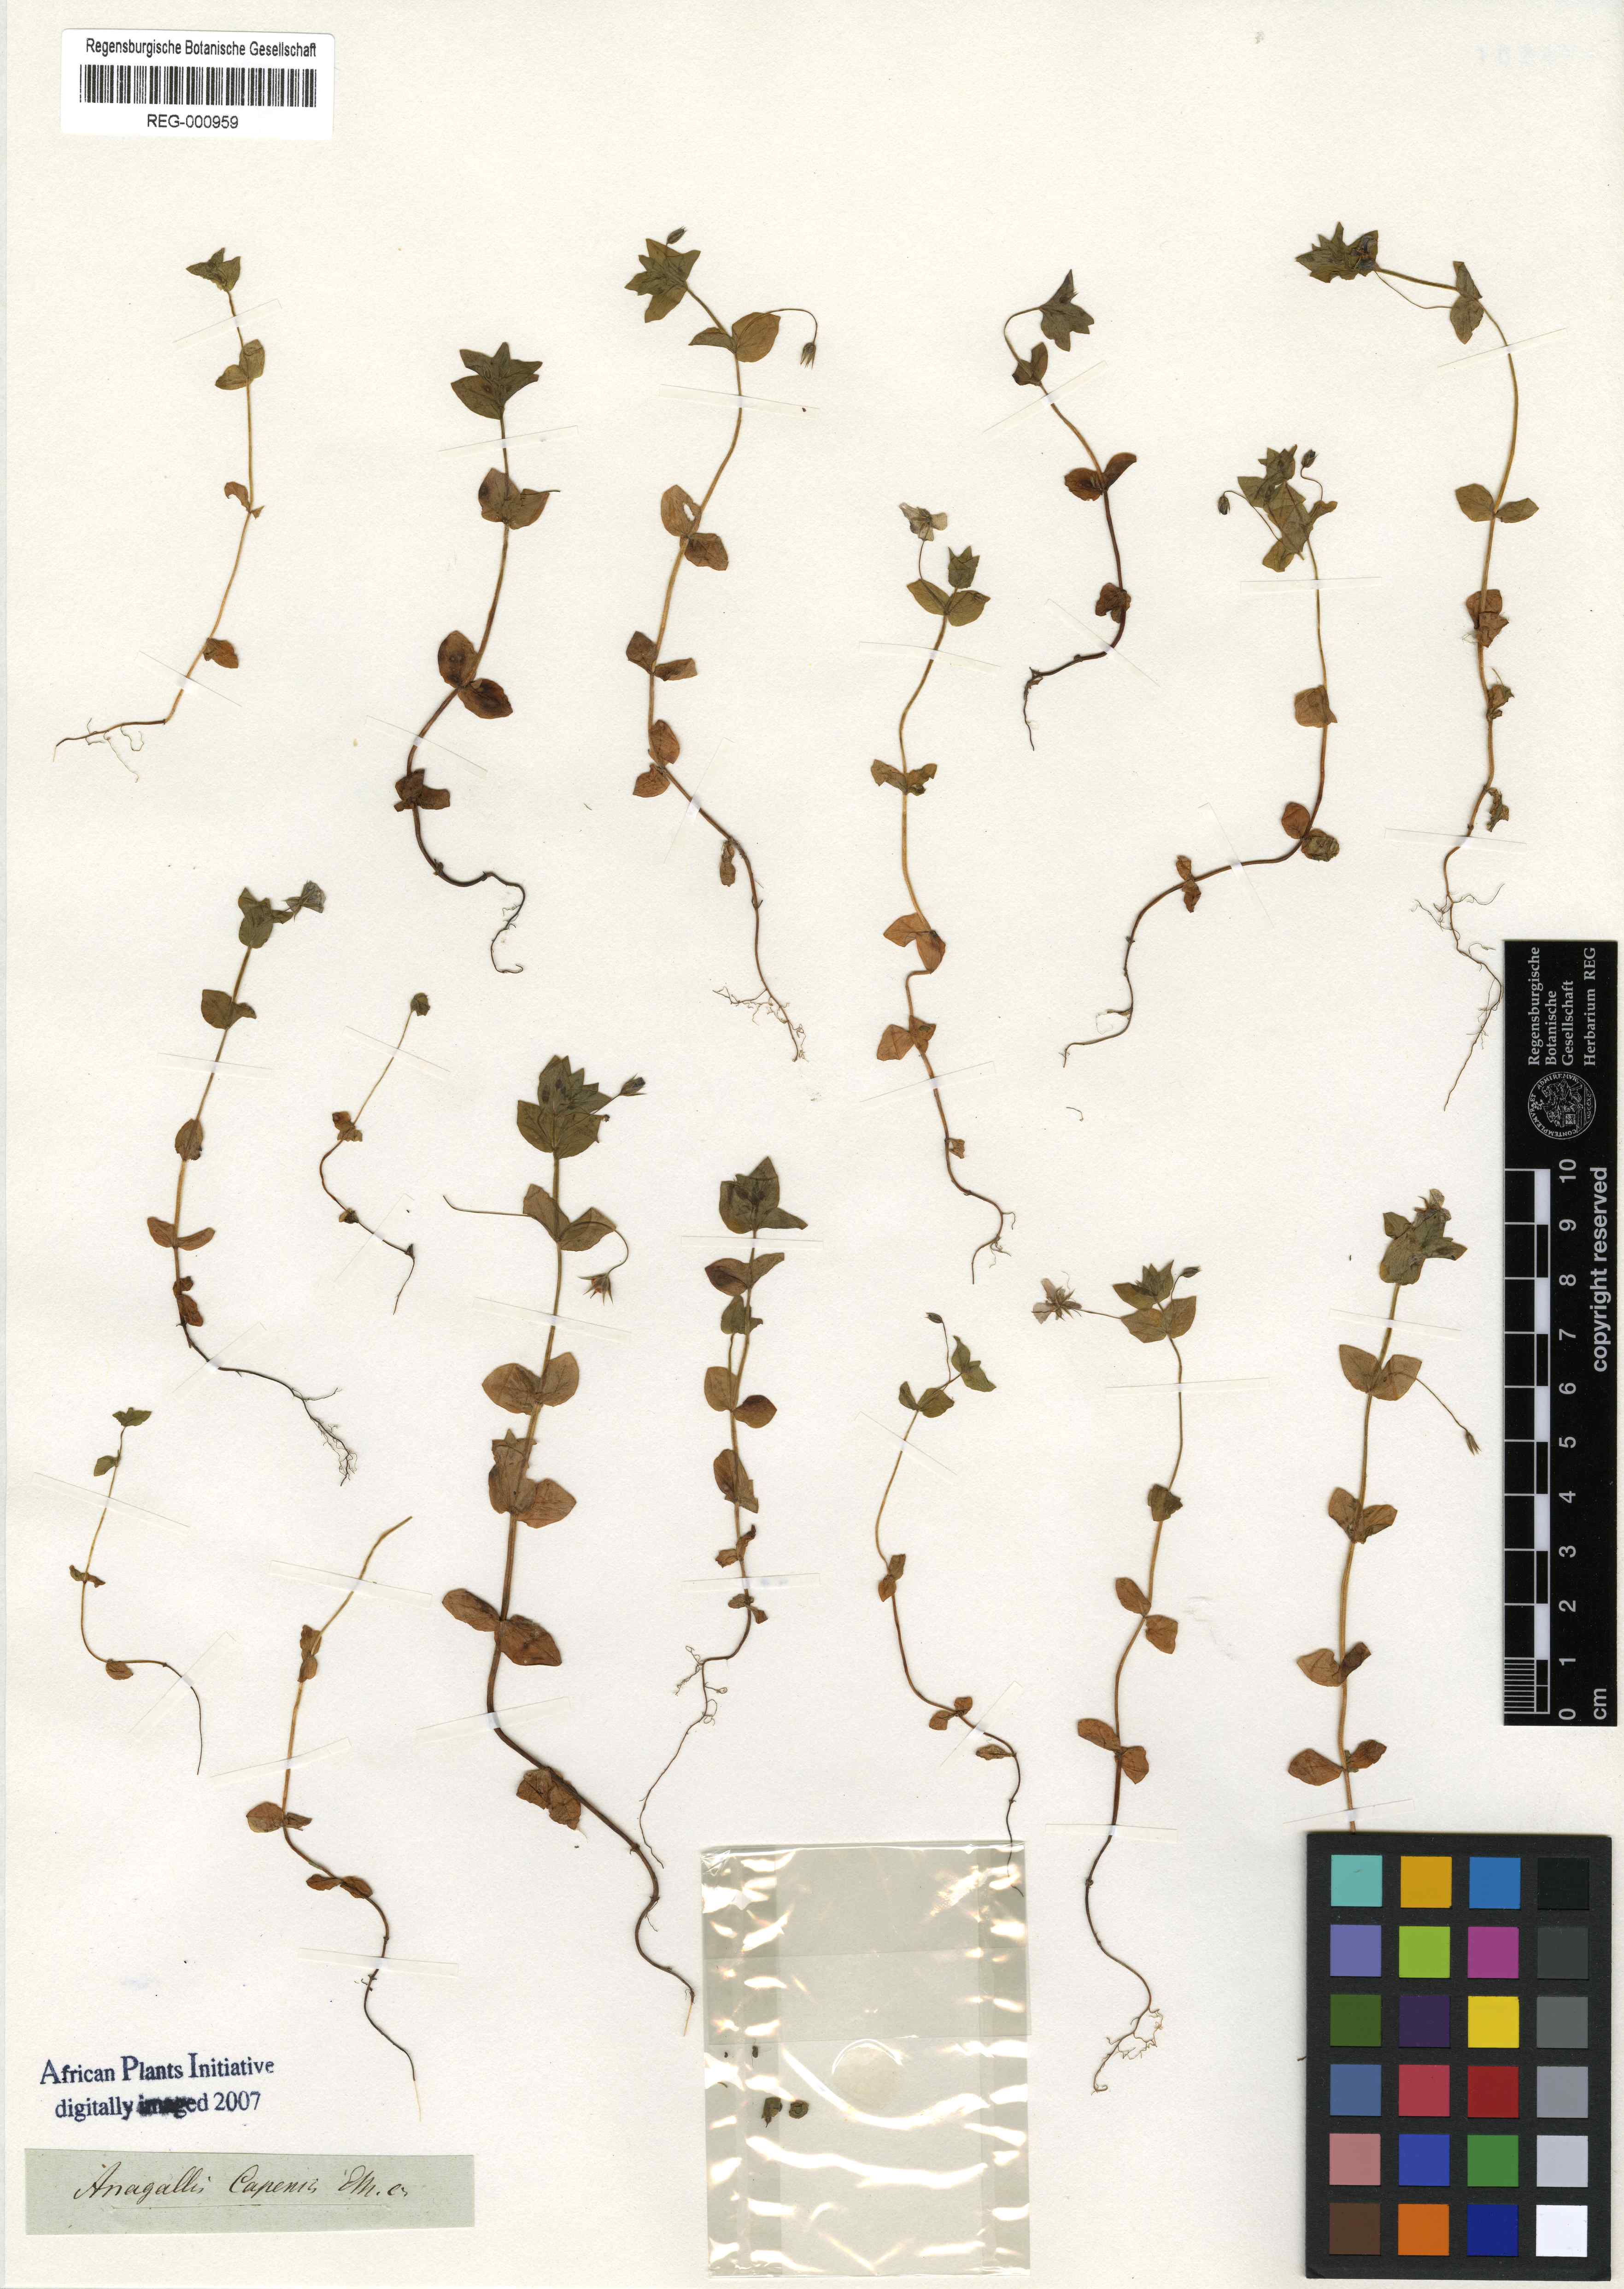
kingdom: Plantae
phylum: Tracheophyta
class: Magnoliopsida
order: Lamiales
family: Scrophulariaceae
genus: Diascia
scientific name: Diascia capensis
